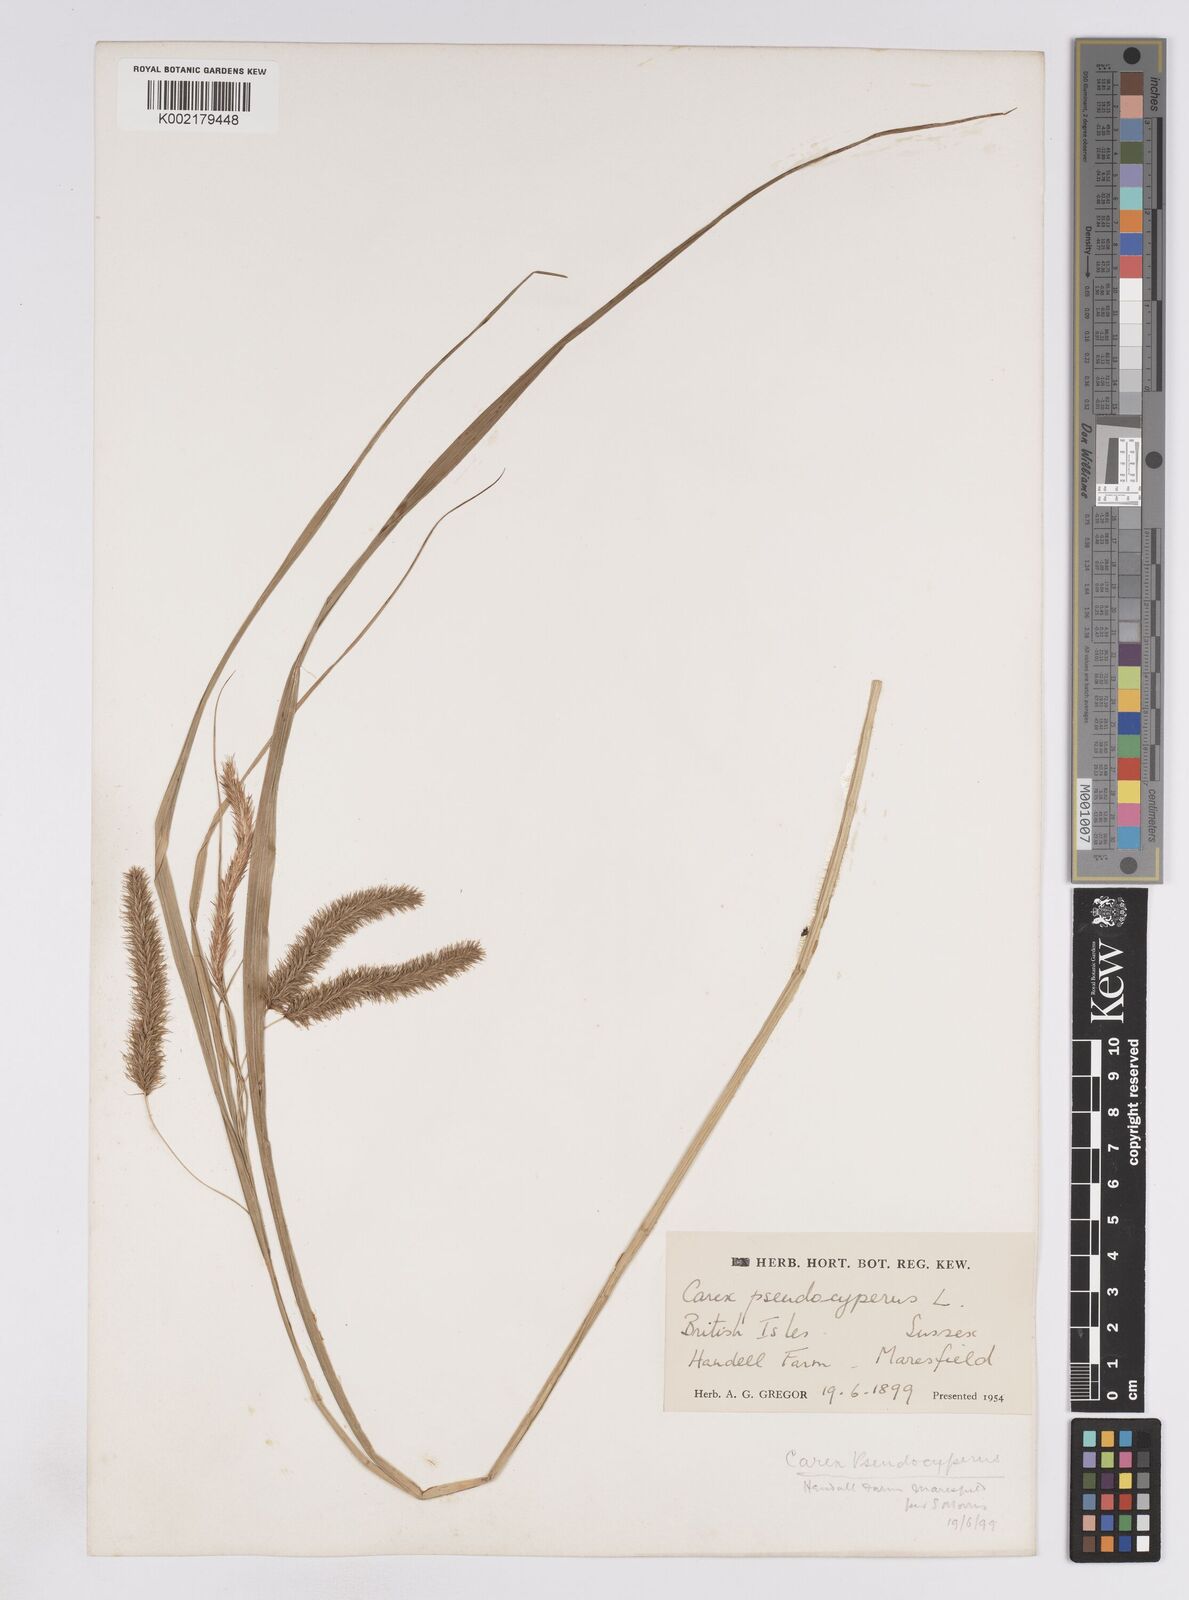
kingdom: Plantae
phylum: Tracheophyta
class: Liliopsida
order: Poales
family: Cyperaceae
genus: Carex
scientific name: Carex pseudocyperus
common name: Cyperus sedge
